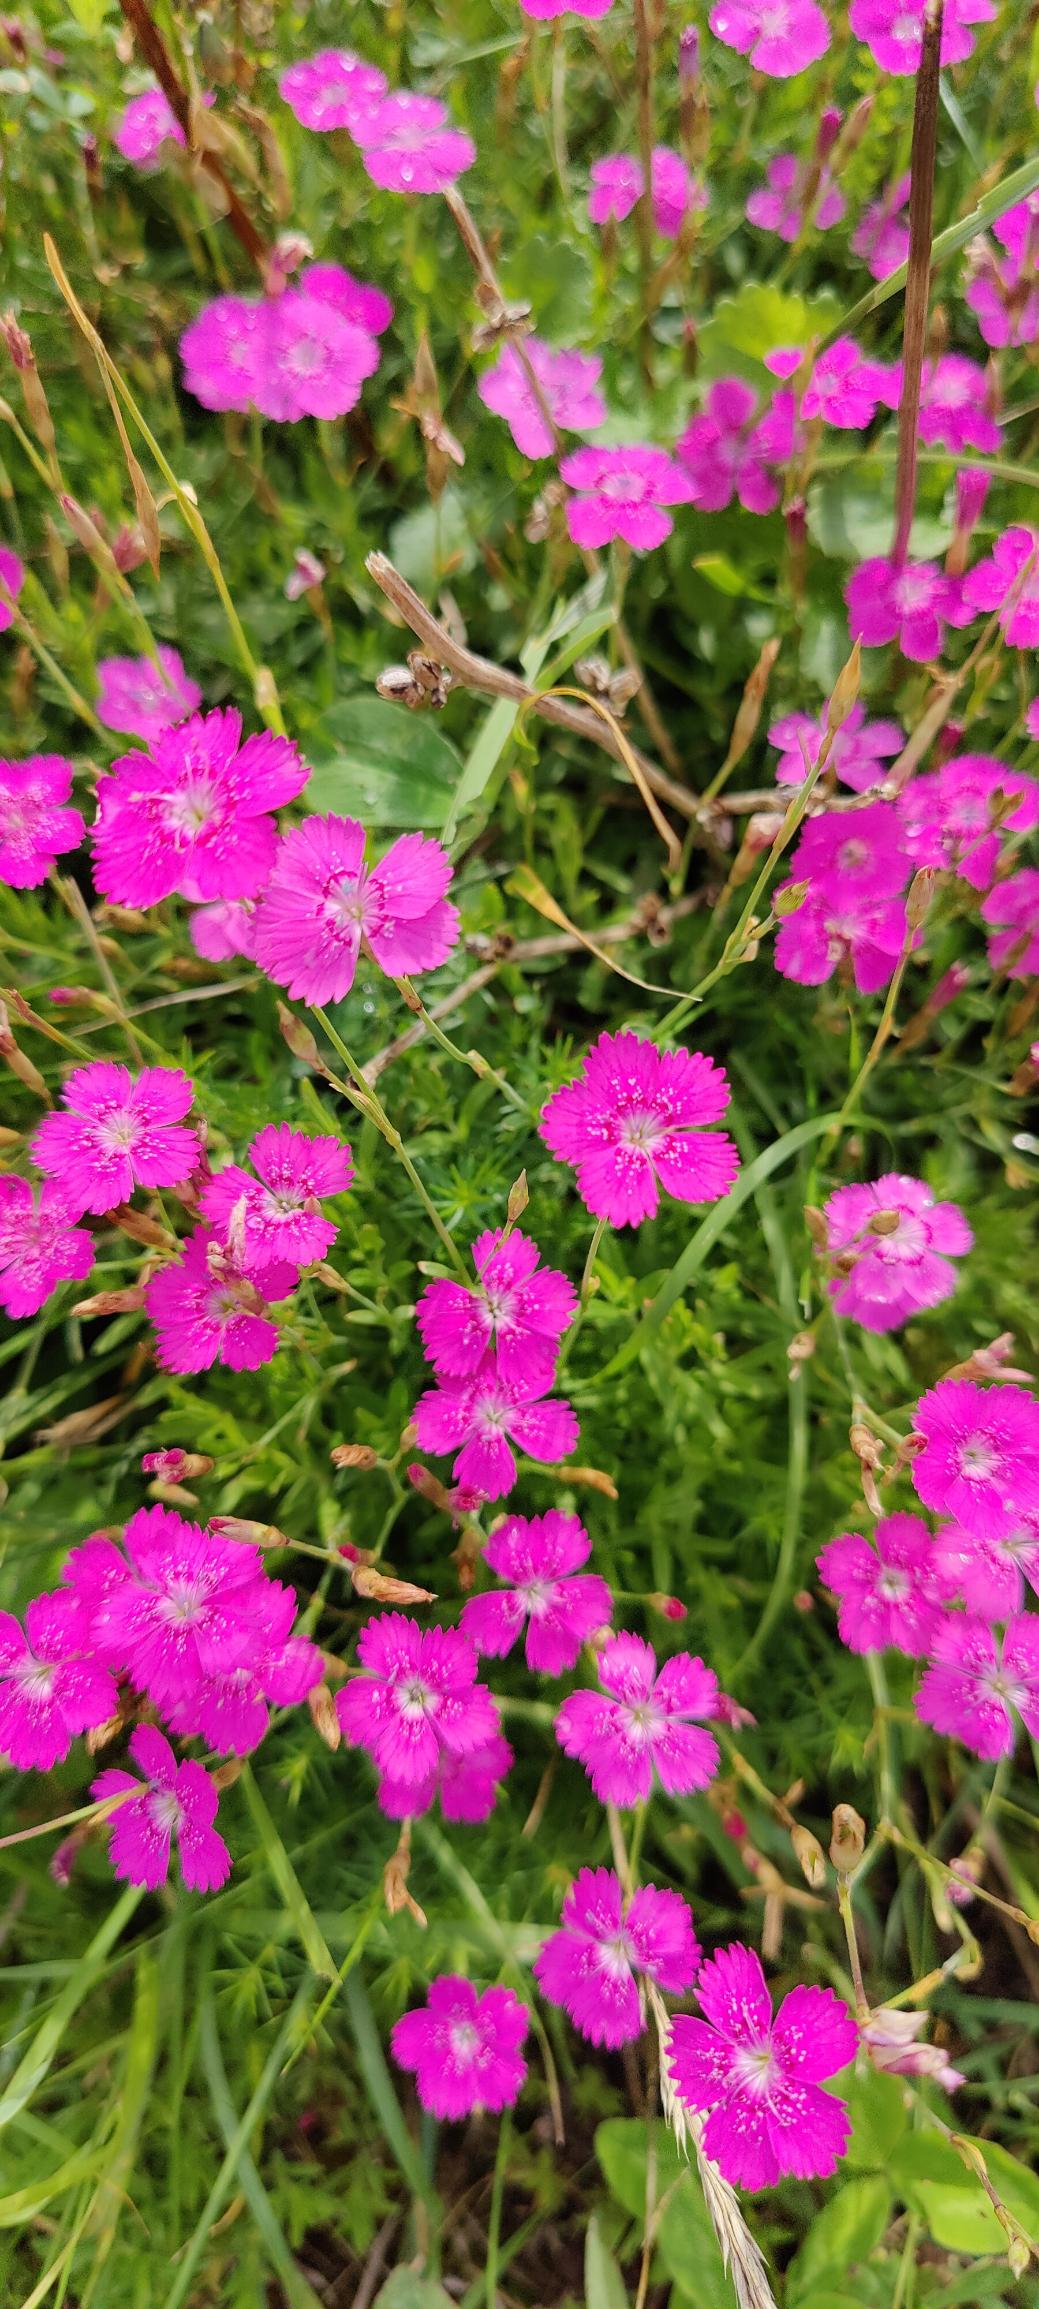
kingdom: Plantae
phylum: Tracheophyta
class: Magnoliopsida
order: Caryophyllales
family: Caryophyllaceae
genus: Dianthus
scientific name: Dianthus deltoides
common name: Bakke-nellike
